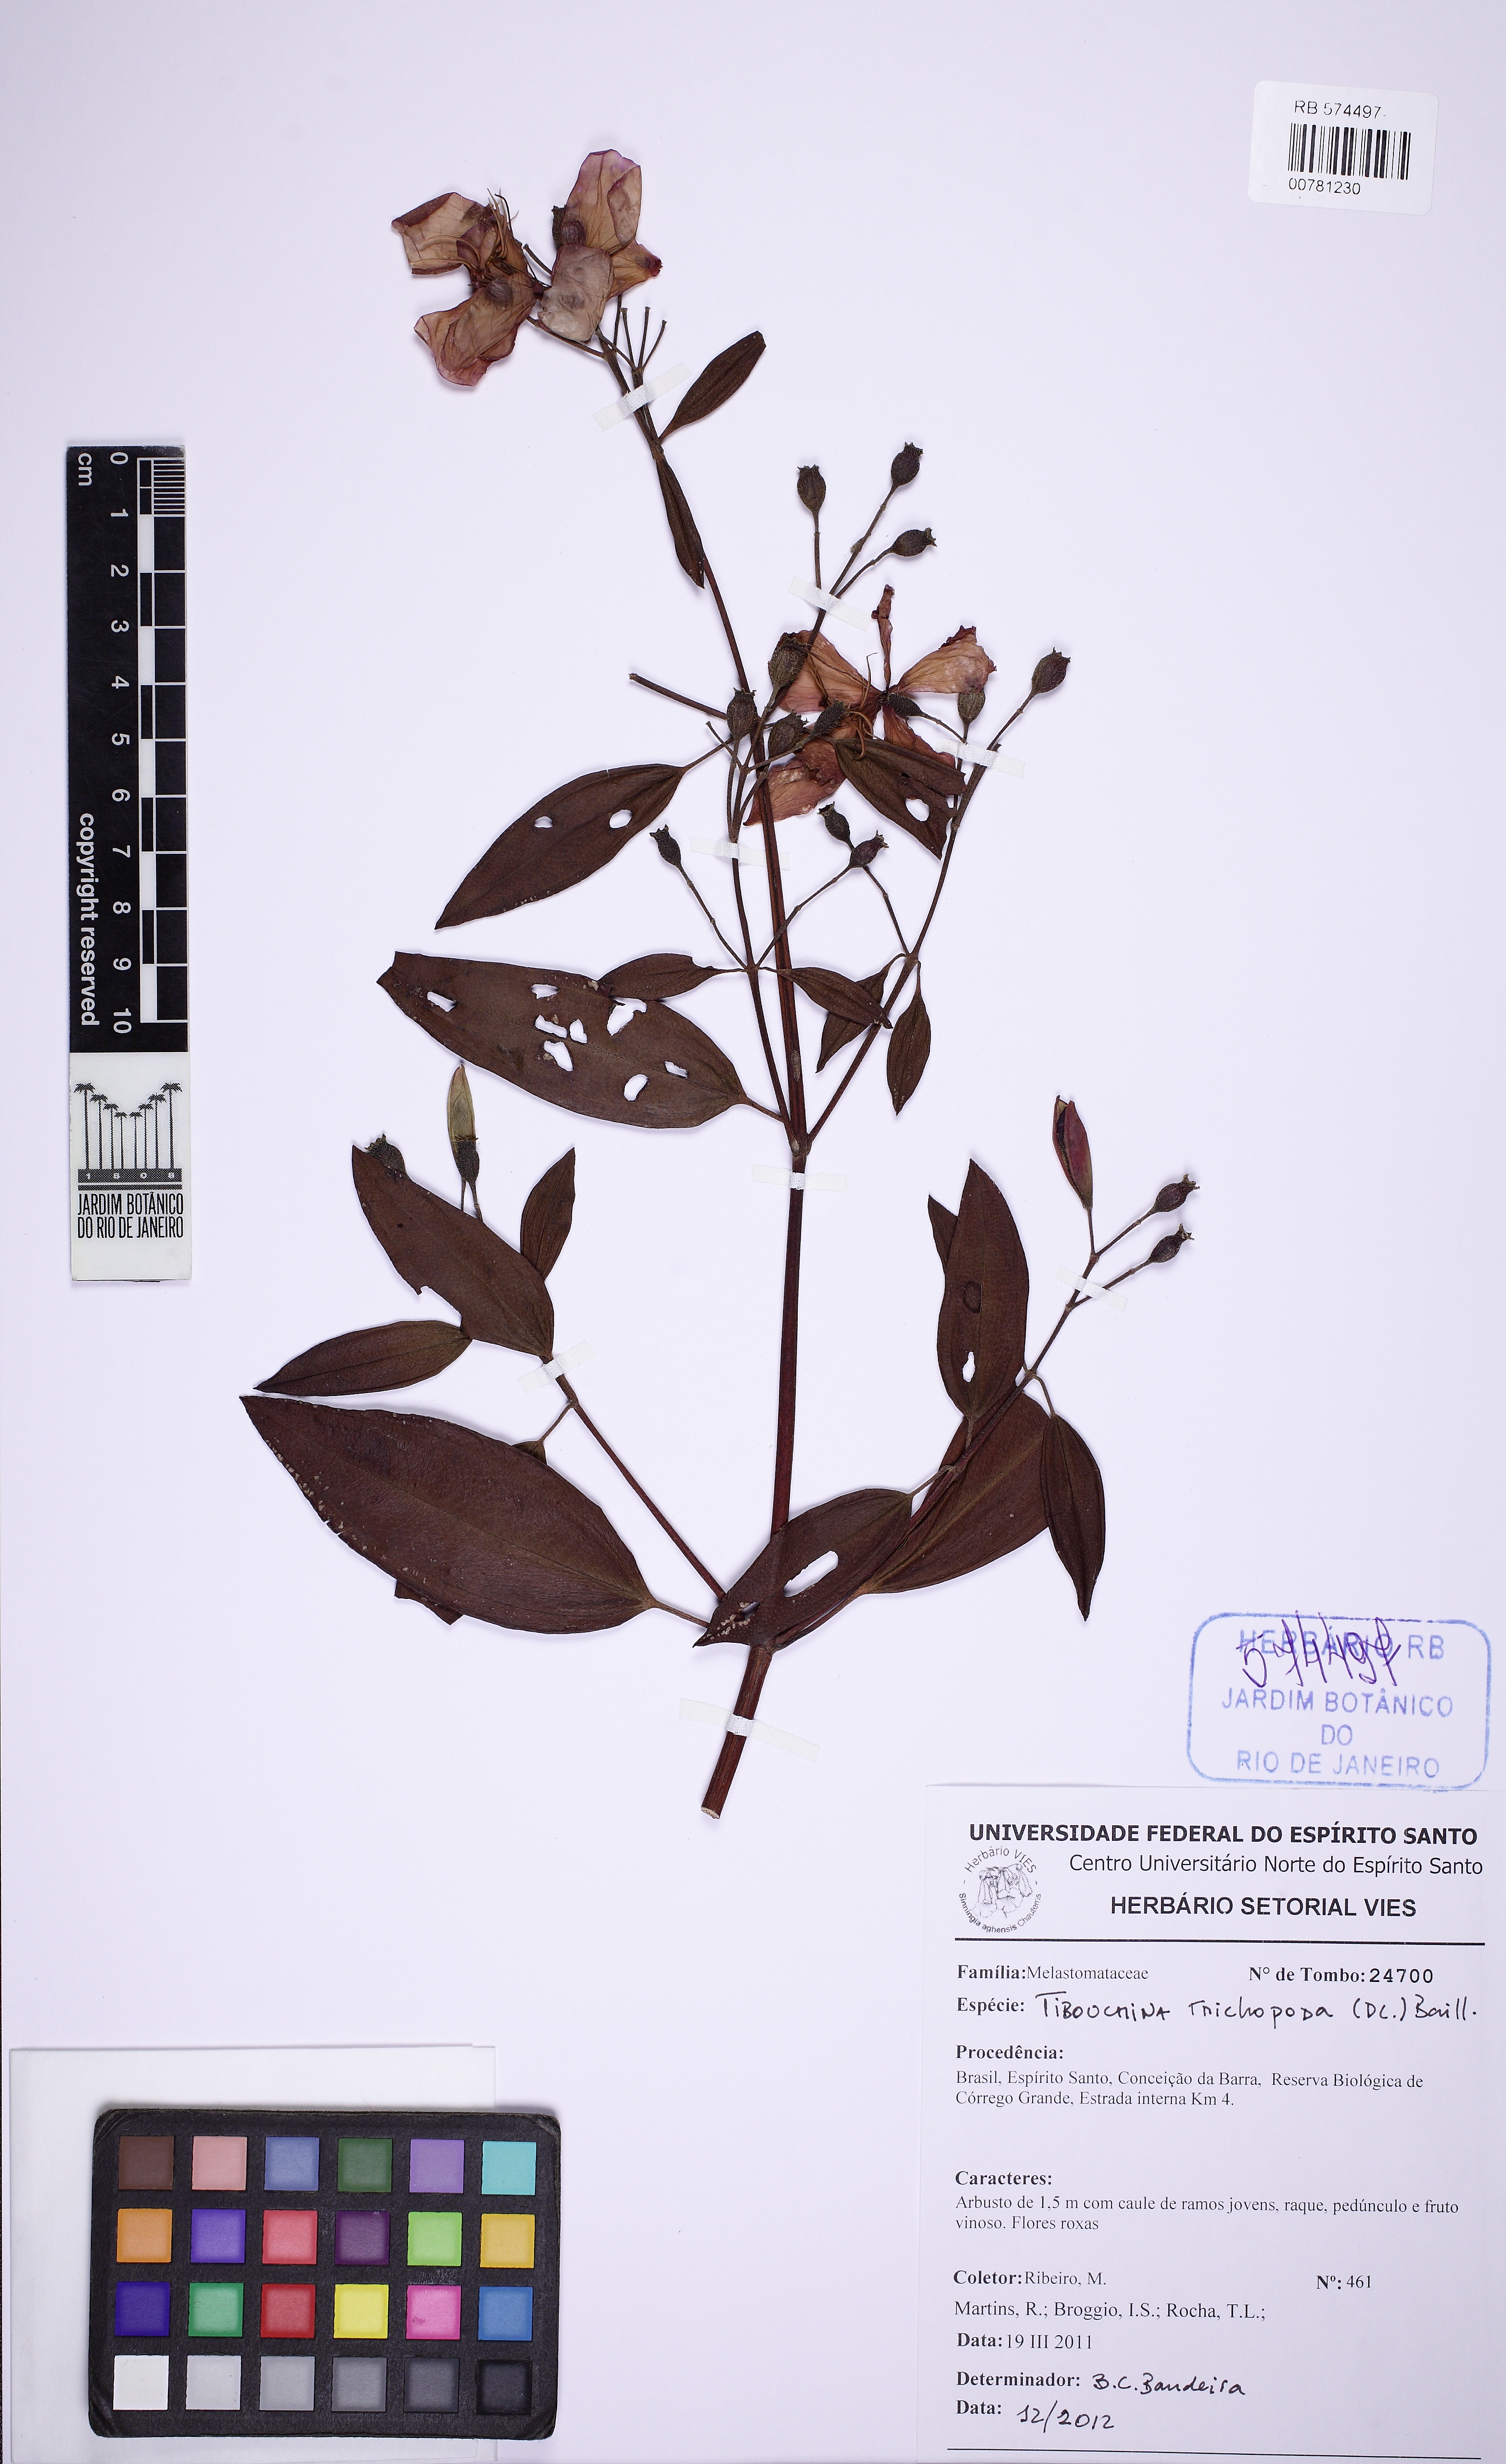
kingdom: Plantae
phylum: Tracheophyta
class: Magnoliopsida
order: Myrtales
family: Melastomataceae
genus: Pleroma
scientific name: Pleroma macrochiton
